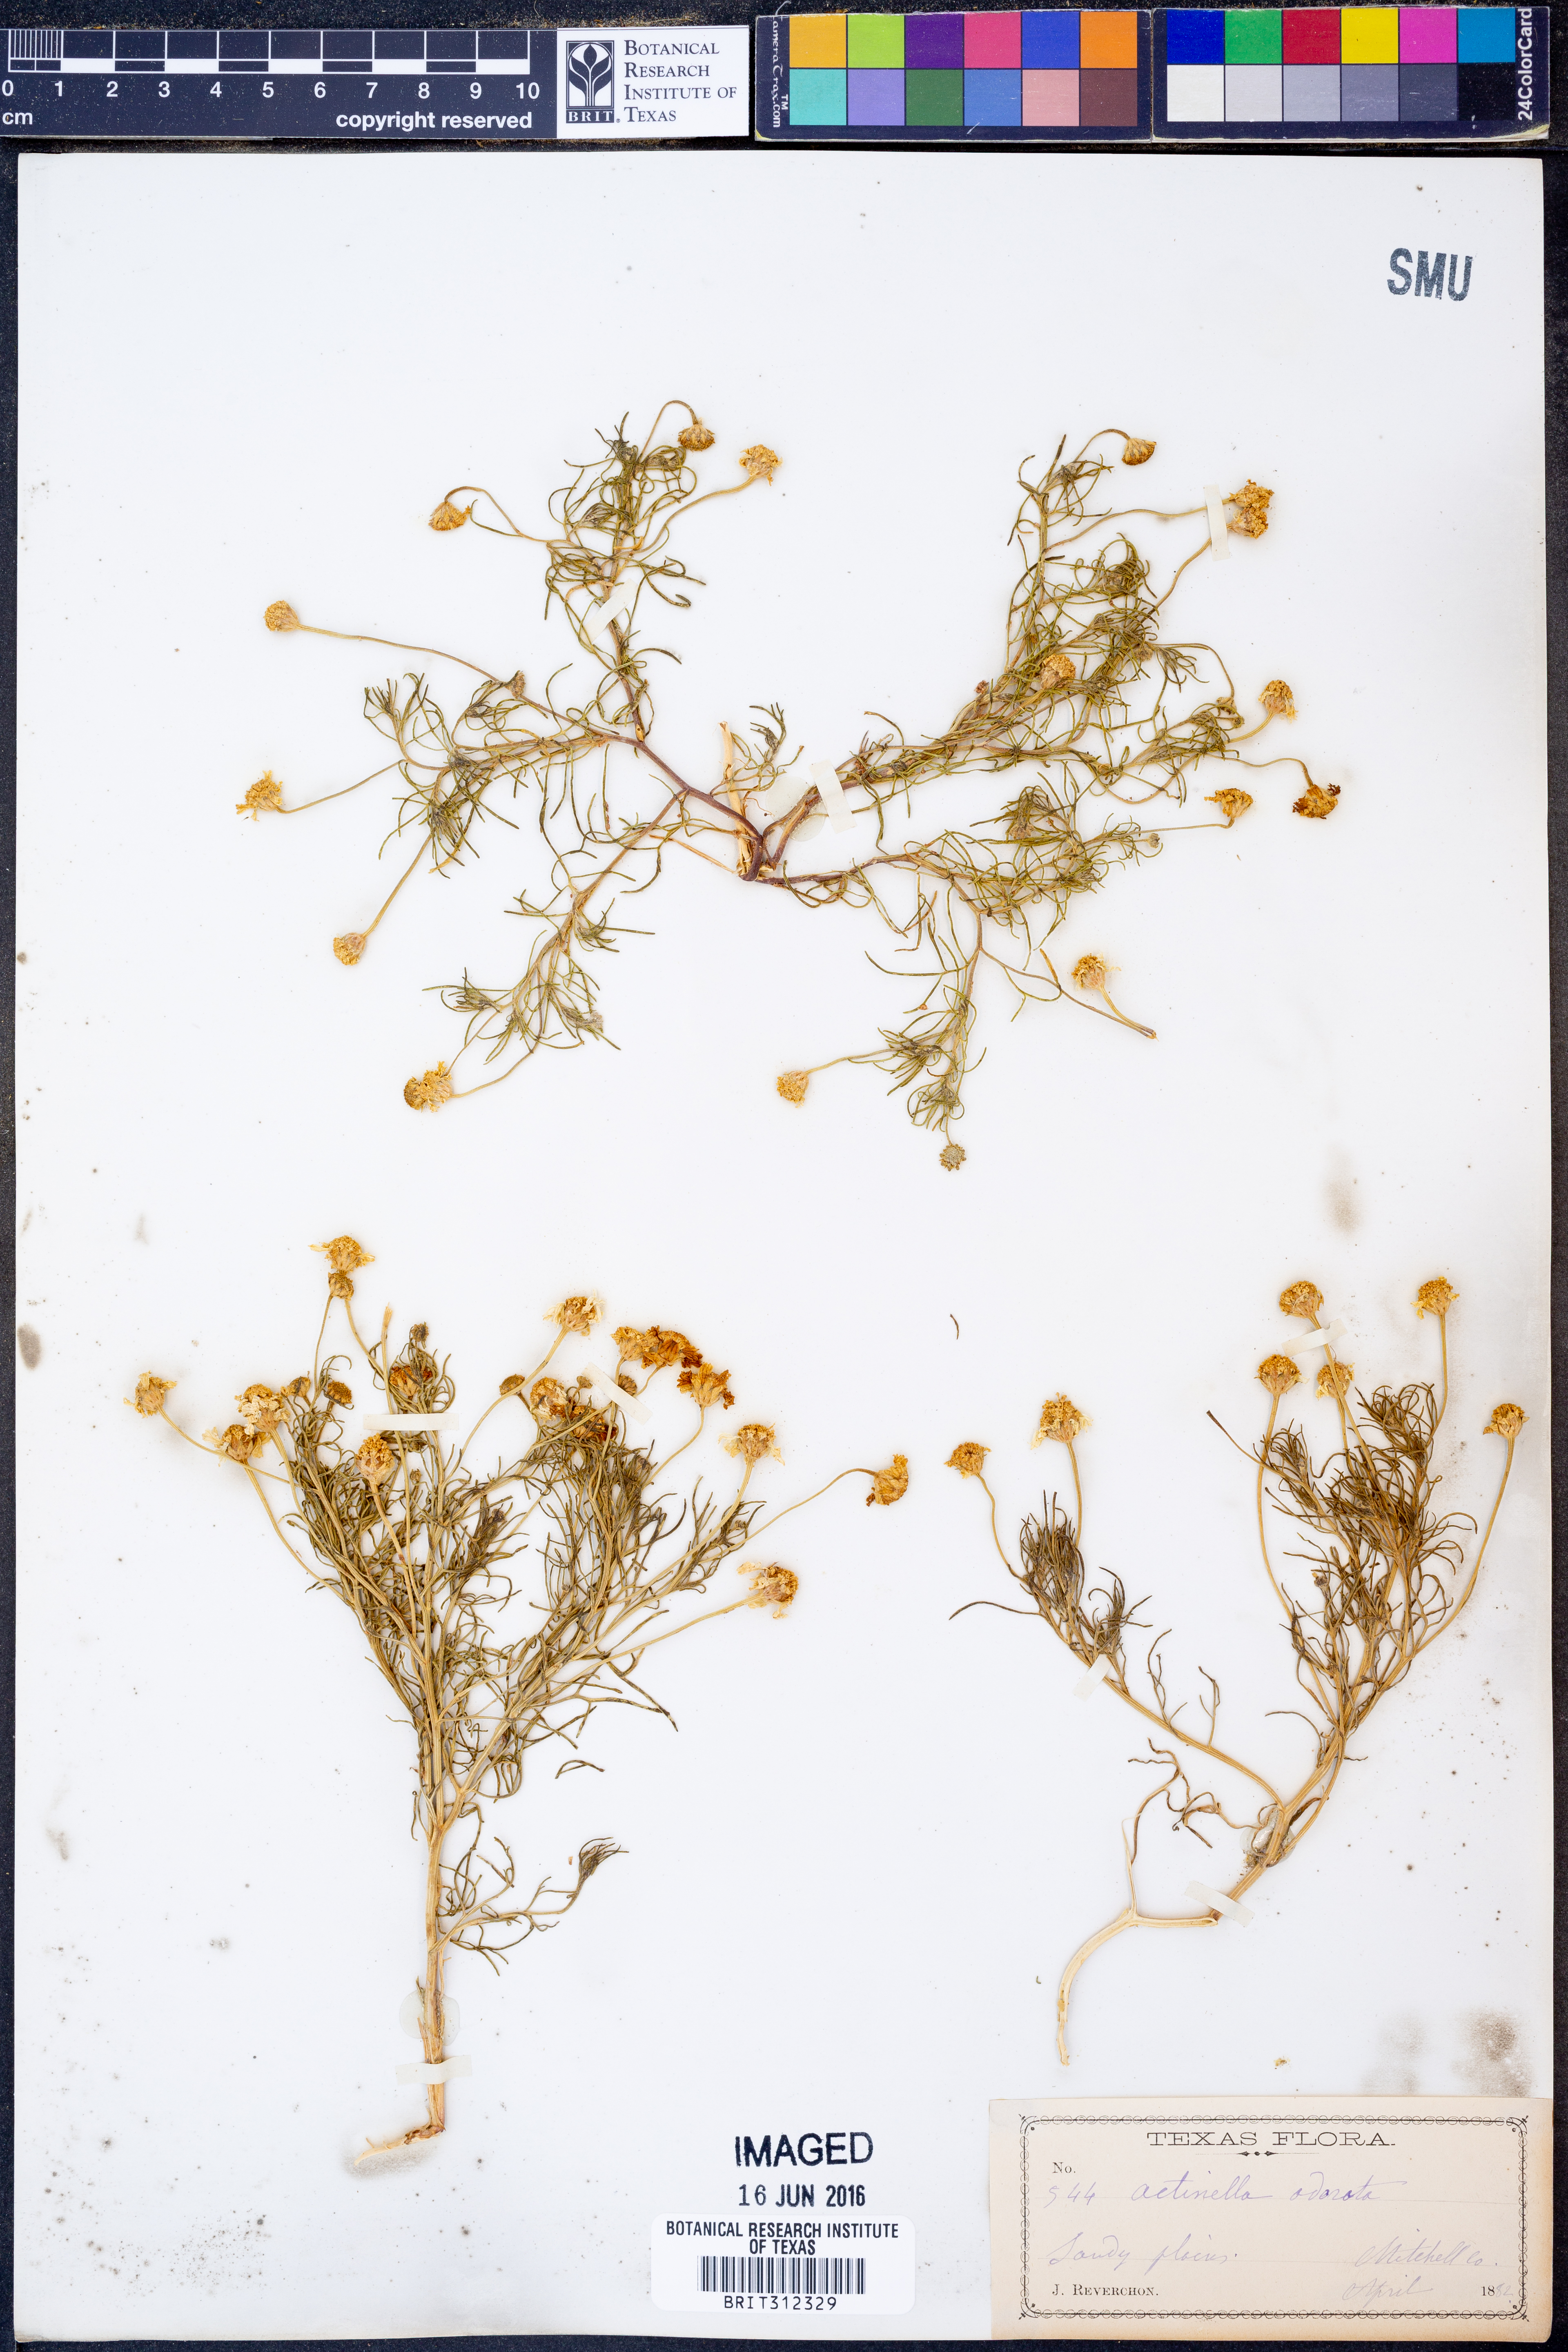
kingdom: Plantae
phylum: Tracheophyta
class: Magnoliopsida
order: Asterales
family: Asteraceae
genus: Hymenoxys
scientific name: Hymenoxys odorata
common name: Bitter rubberweed
